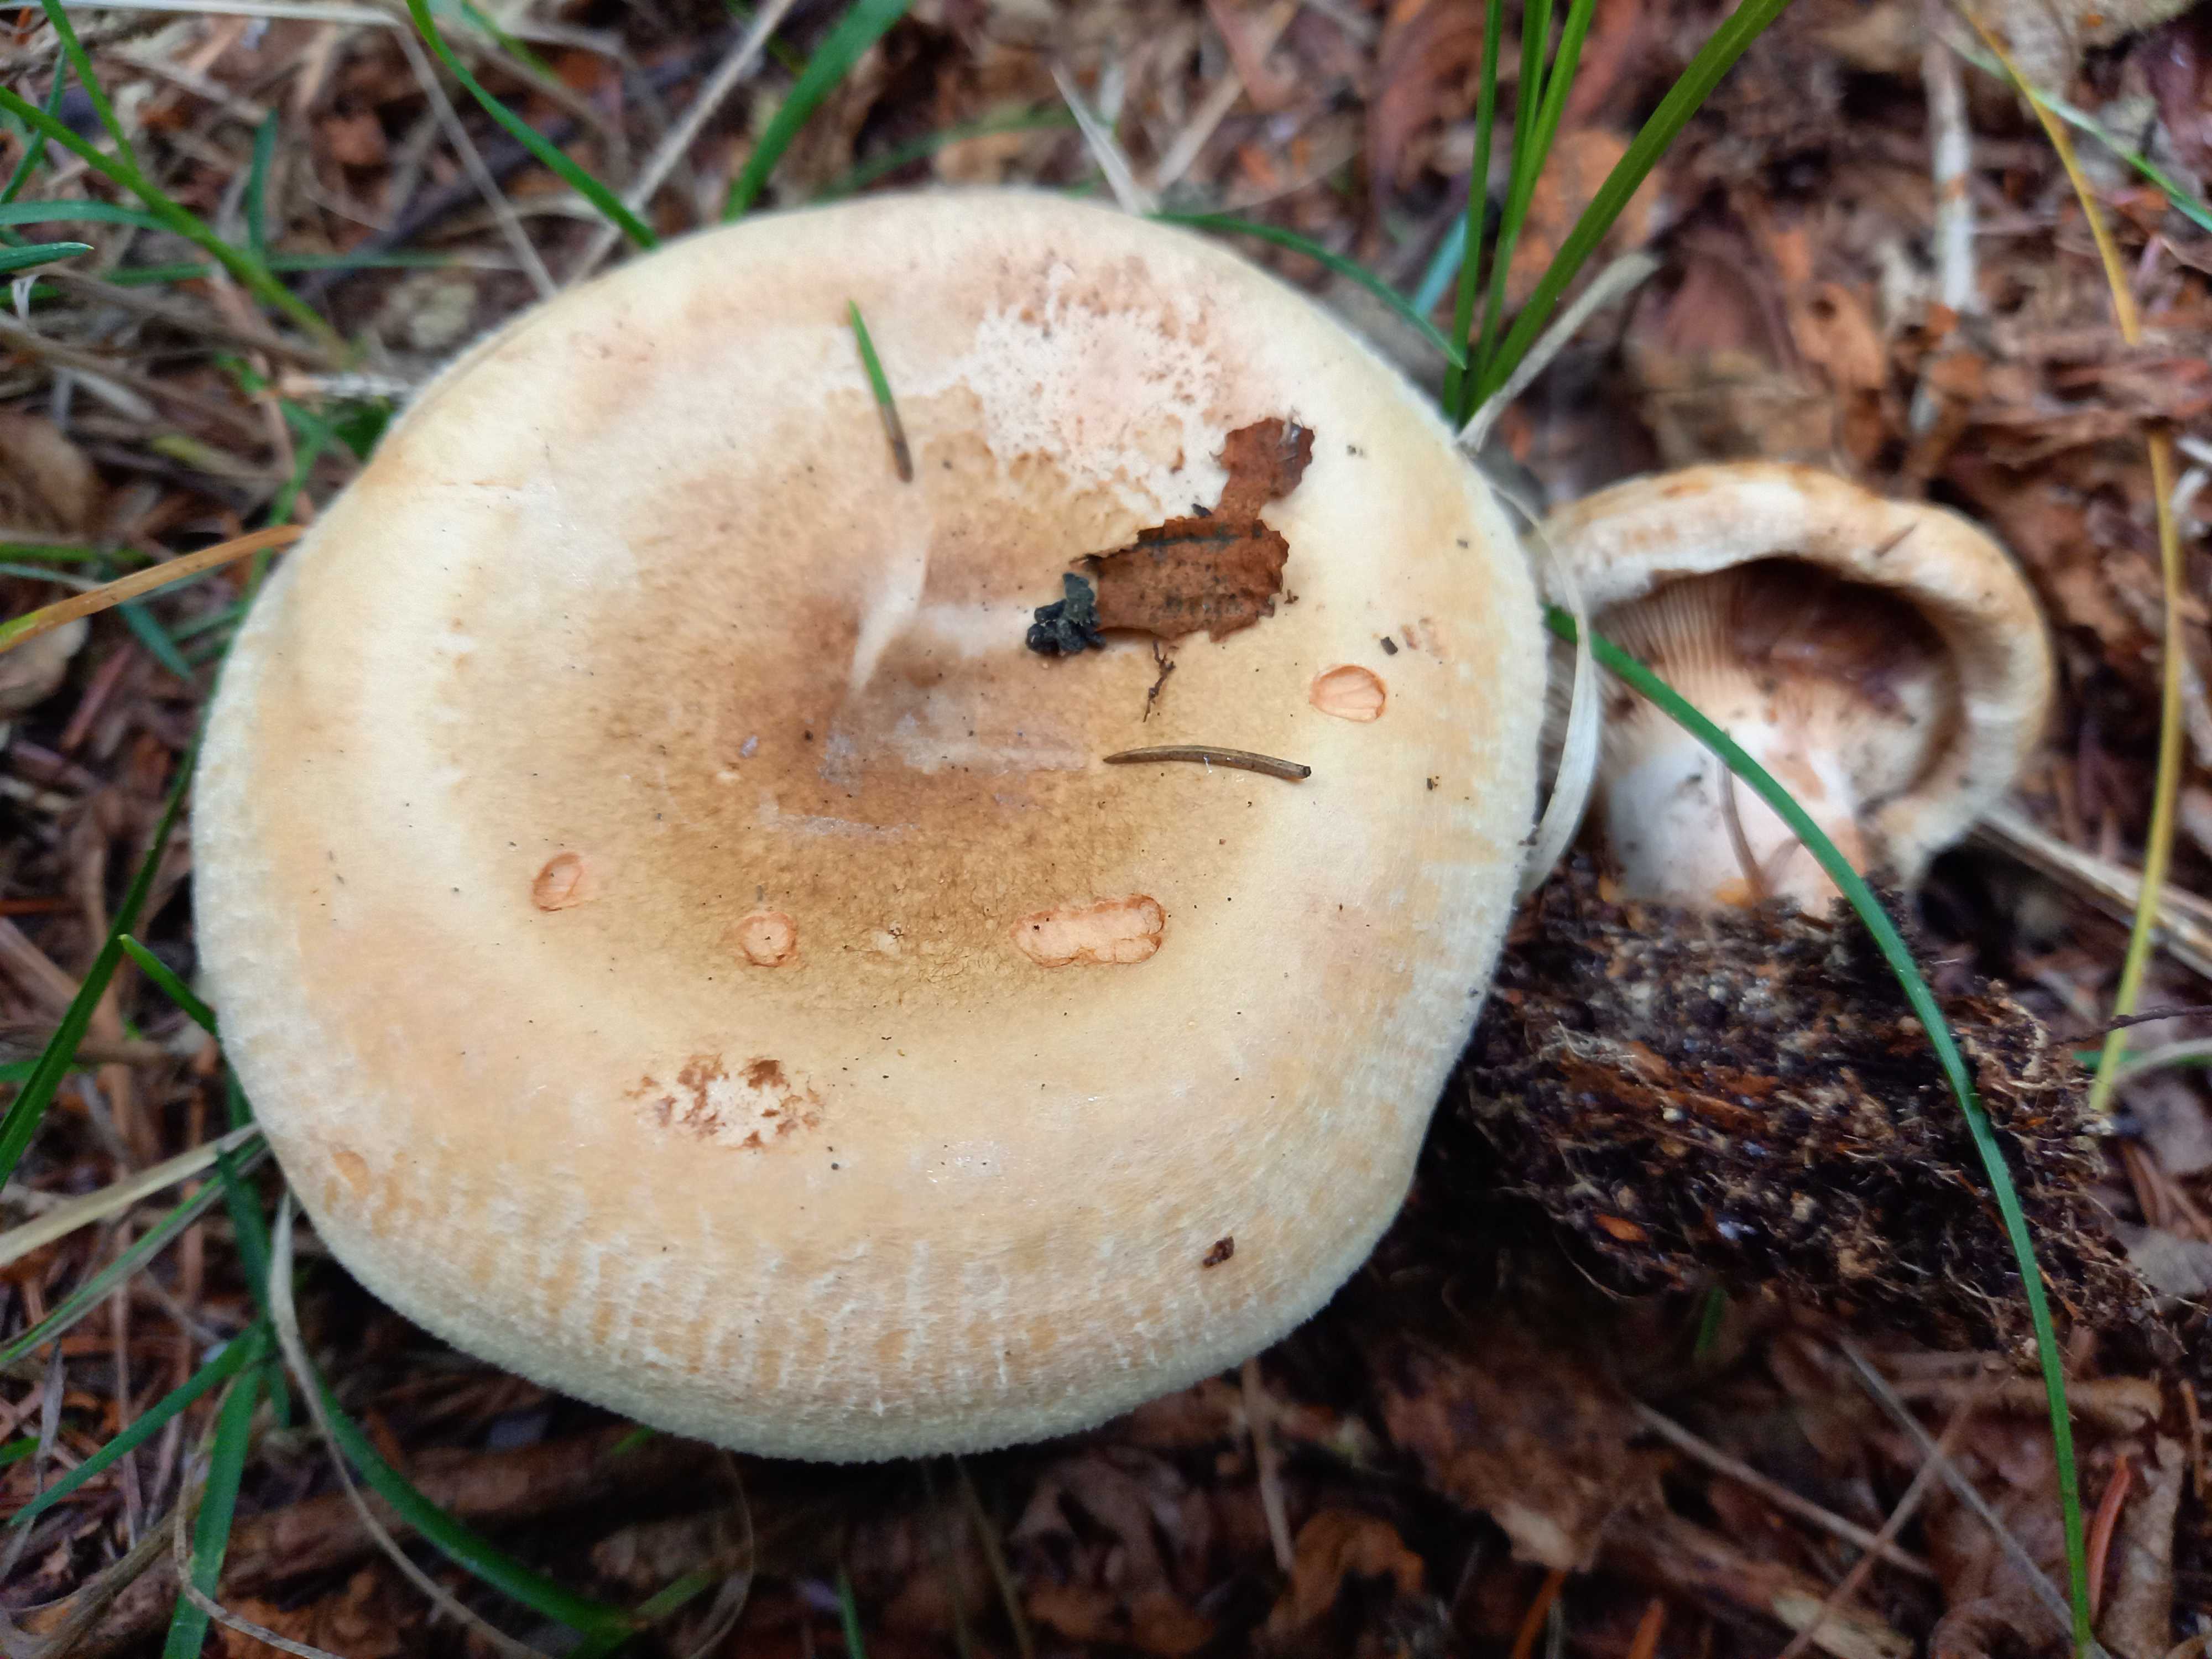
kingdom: Fungi
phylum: Basidiomycota
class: Agaricomycetes
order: Boletales
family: Paxillaceae
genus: Paxillus
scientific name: Paxillus involutus
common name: almindelig netbladhat
